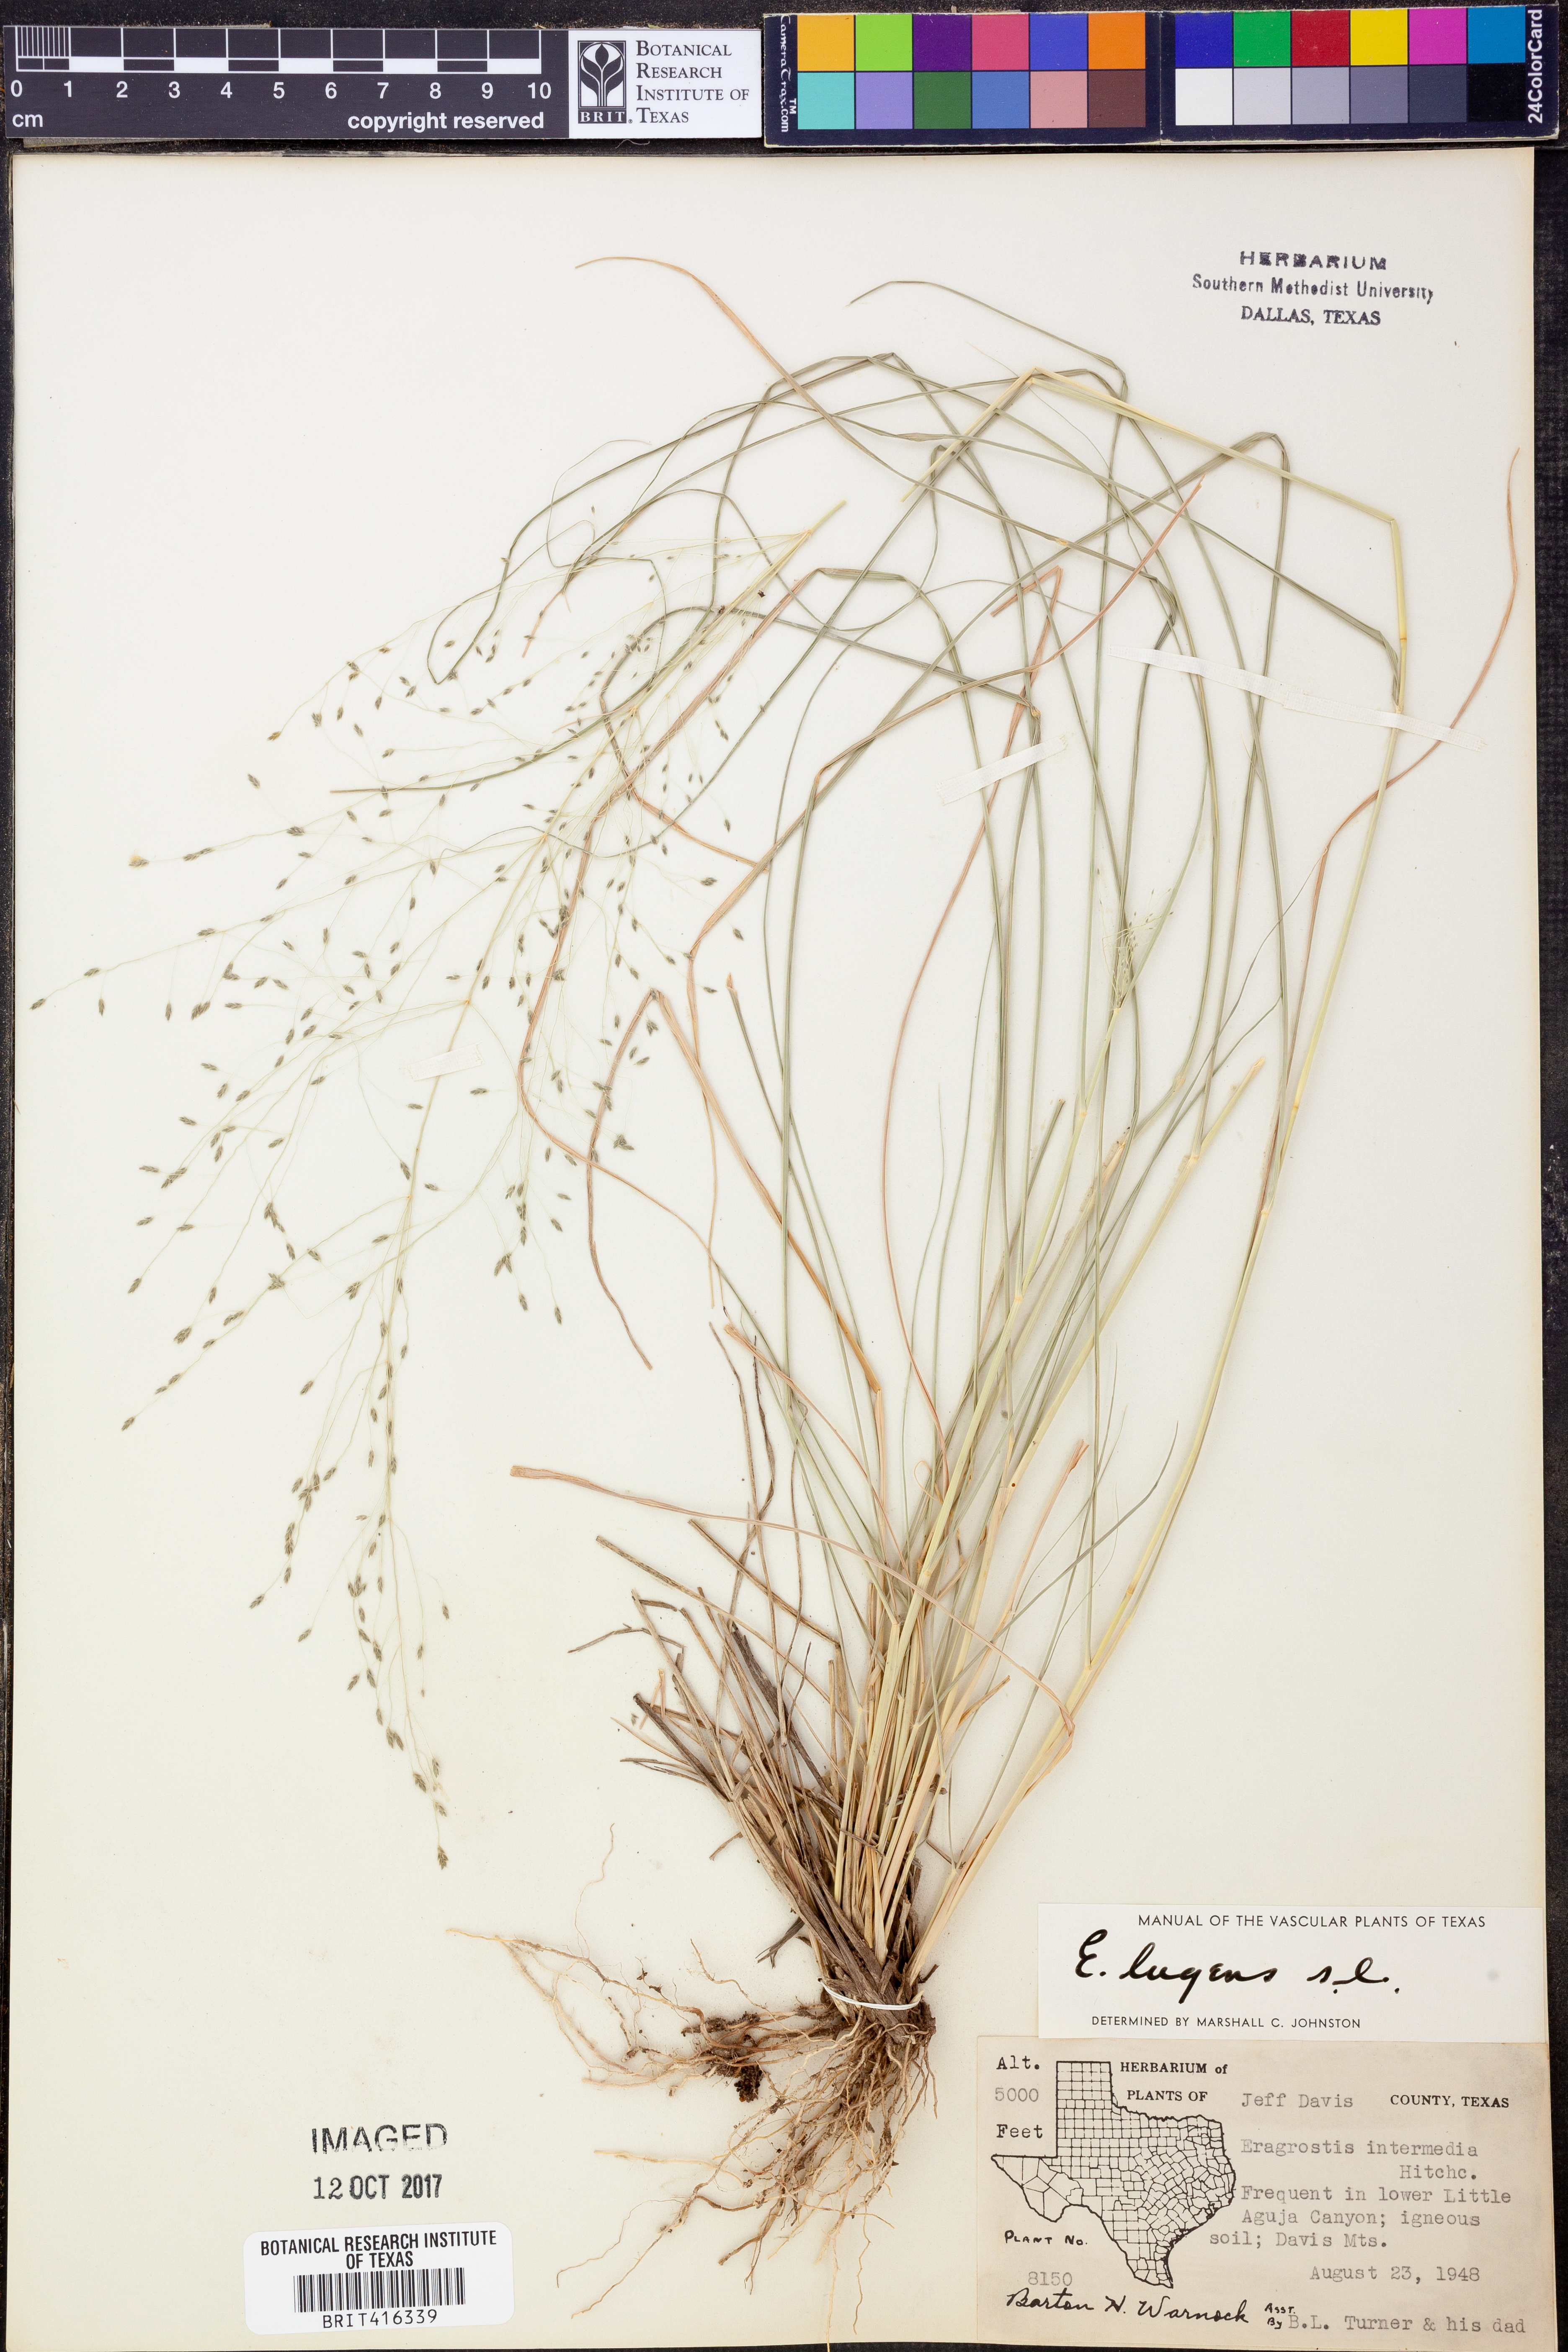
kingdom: Plantae
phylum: Tracheophyta
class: Liliopsida
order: Poales
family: Poaceae
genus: Eragrostis
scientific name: Eragrostis
